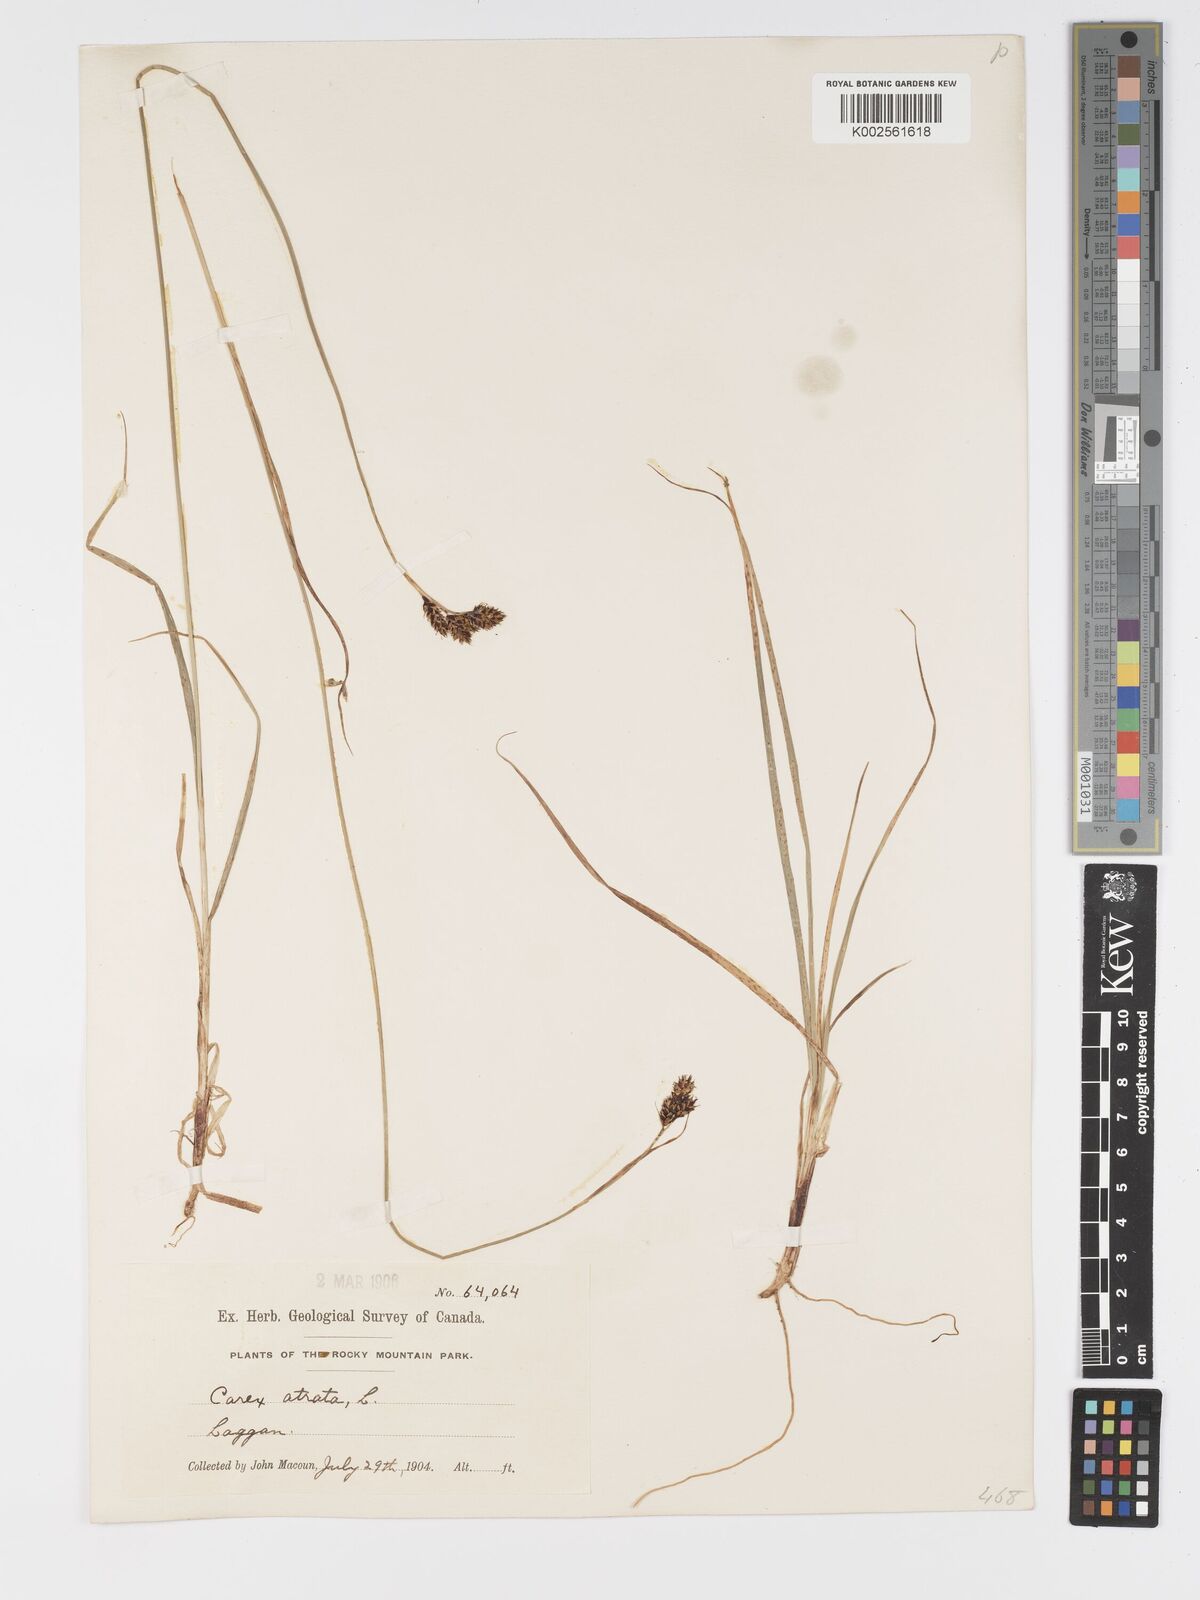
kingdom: Plantae
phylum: Tracheophyta
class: Liliopsida
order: Poales
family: Cyperaceae
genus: Carex
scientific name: Carex atrosquama
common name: Black-scale sedge
